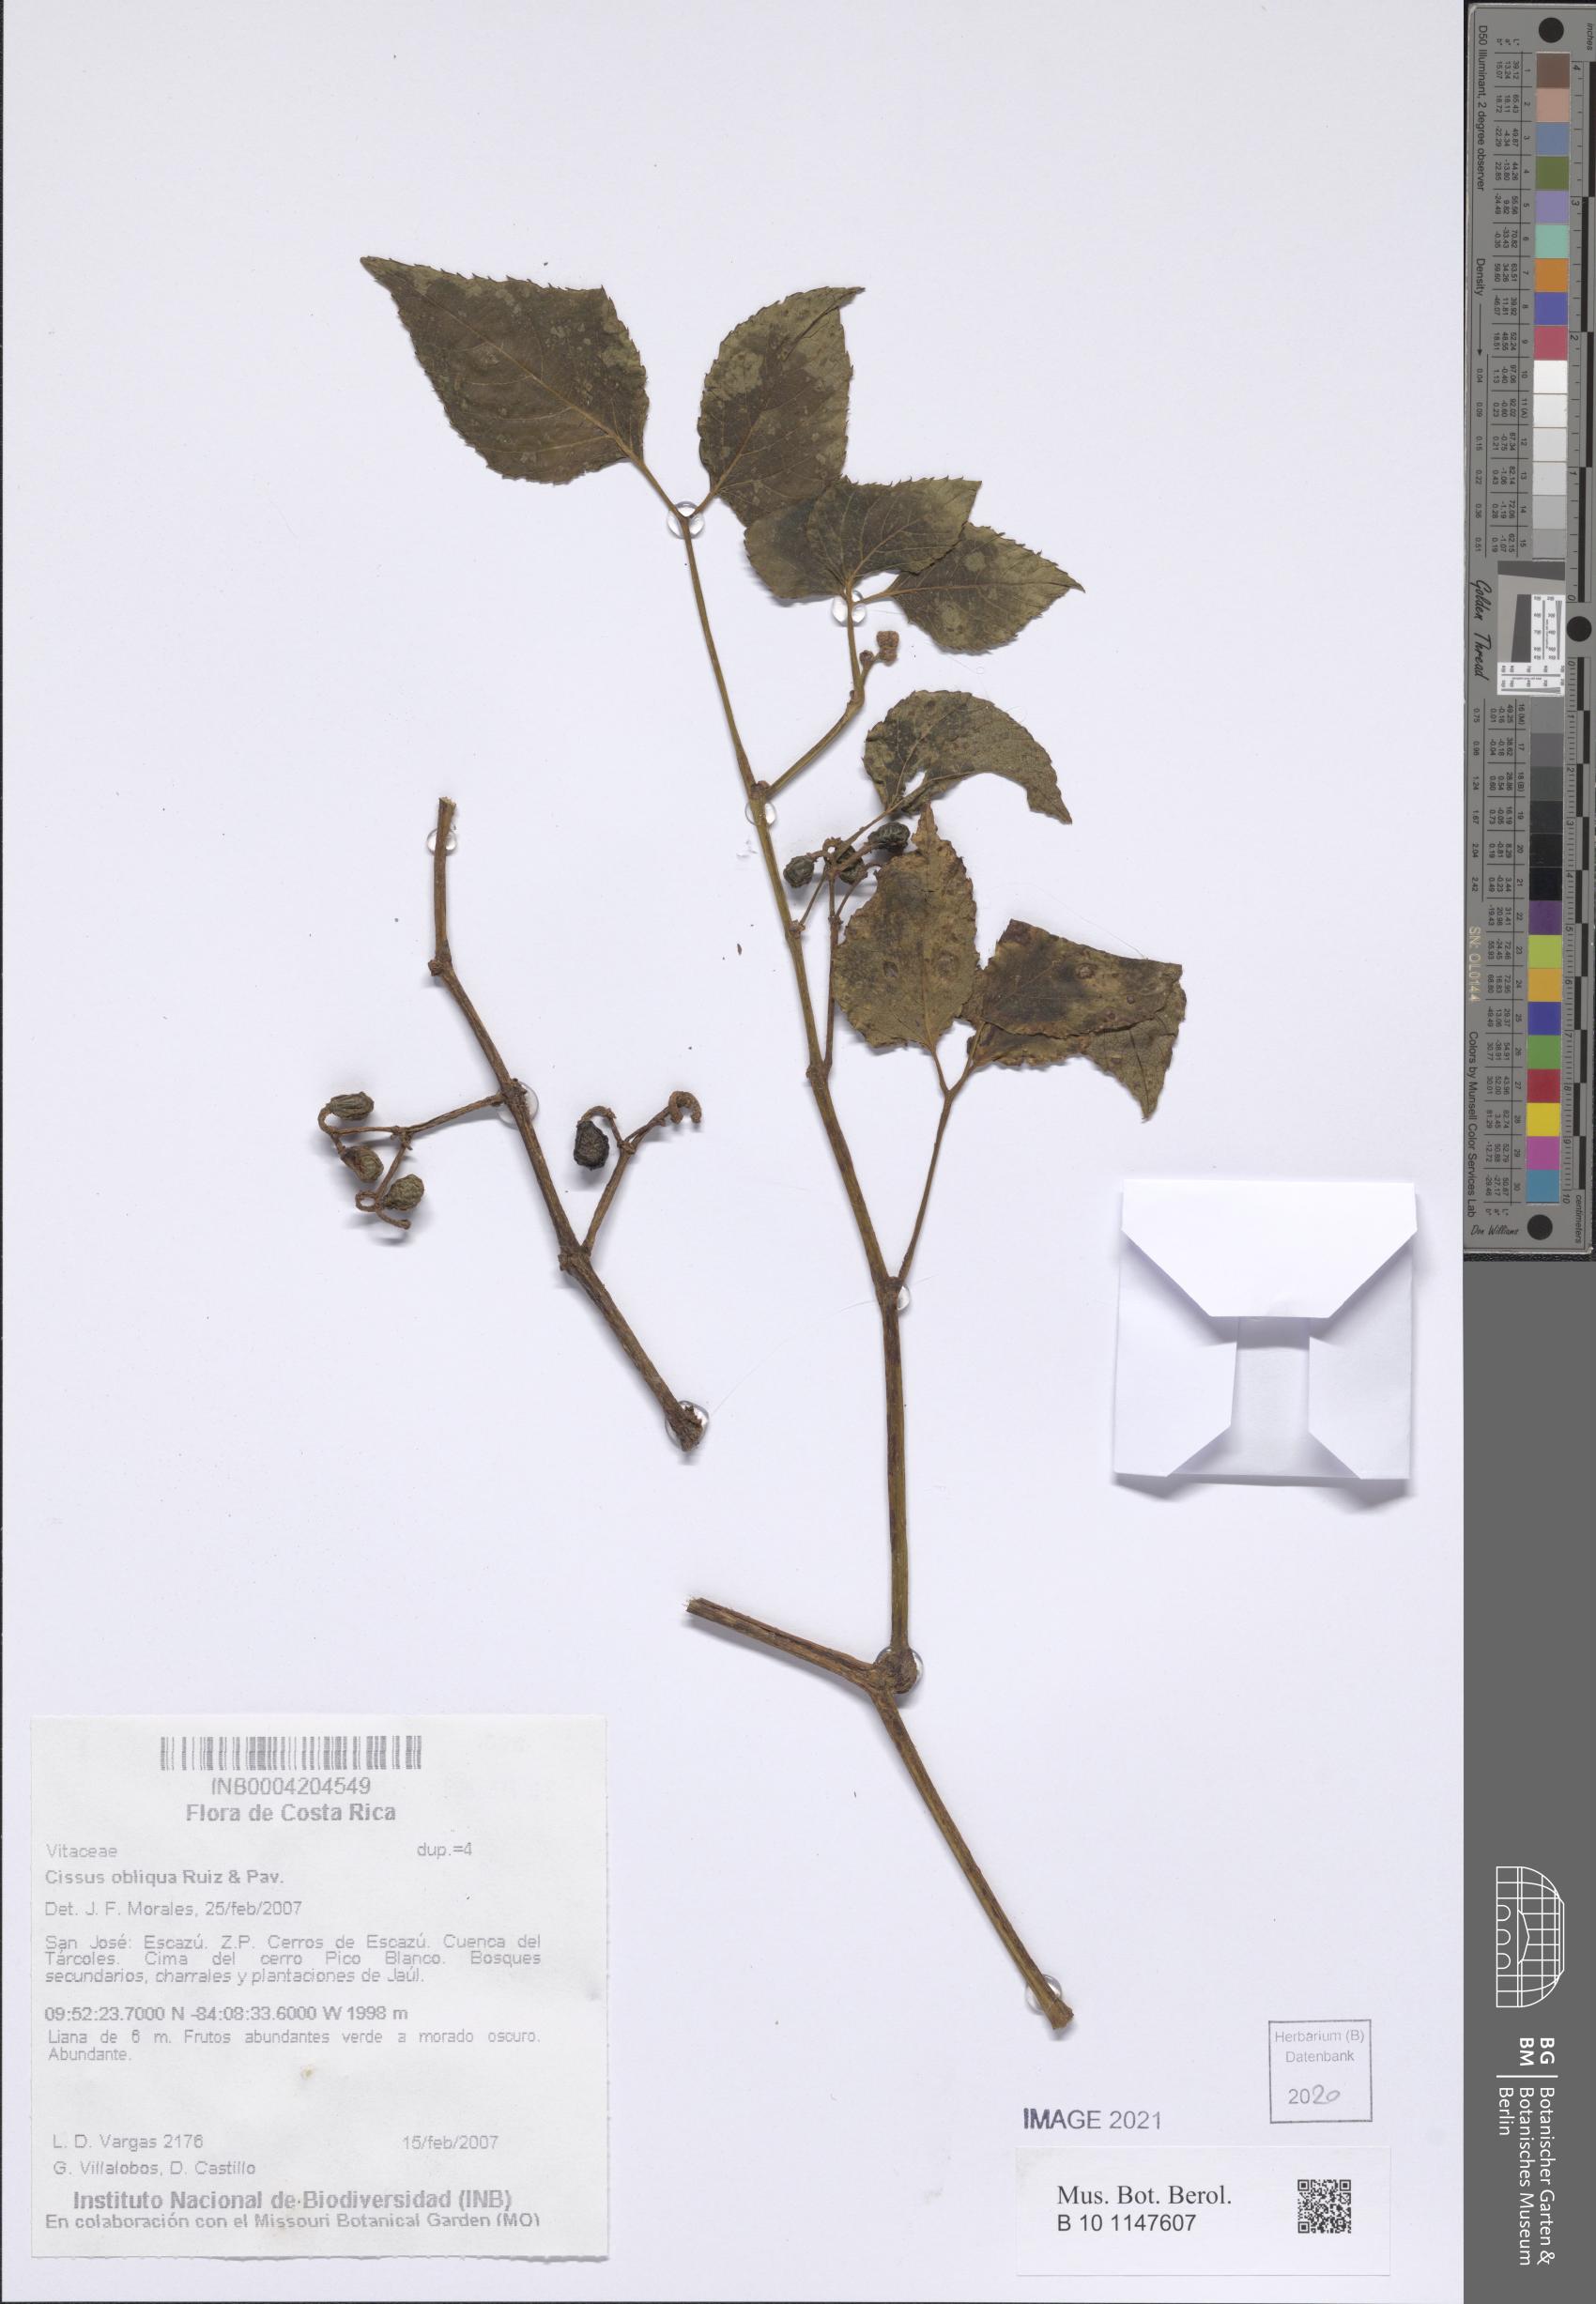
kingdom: Plantae
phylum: Tracheophyta
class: Magnoliopsida
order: Vitales
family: Vitaceae
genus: Cissus
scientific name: Cissus obliqua
